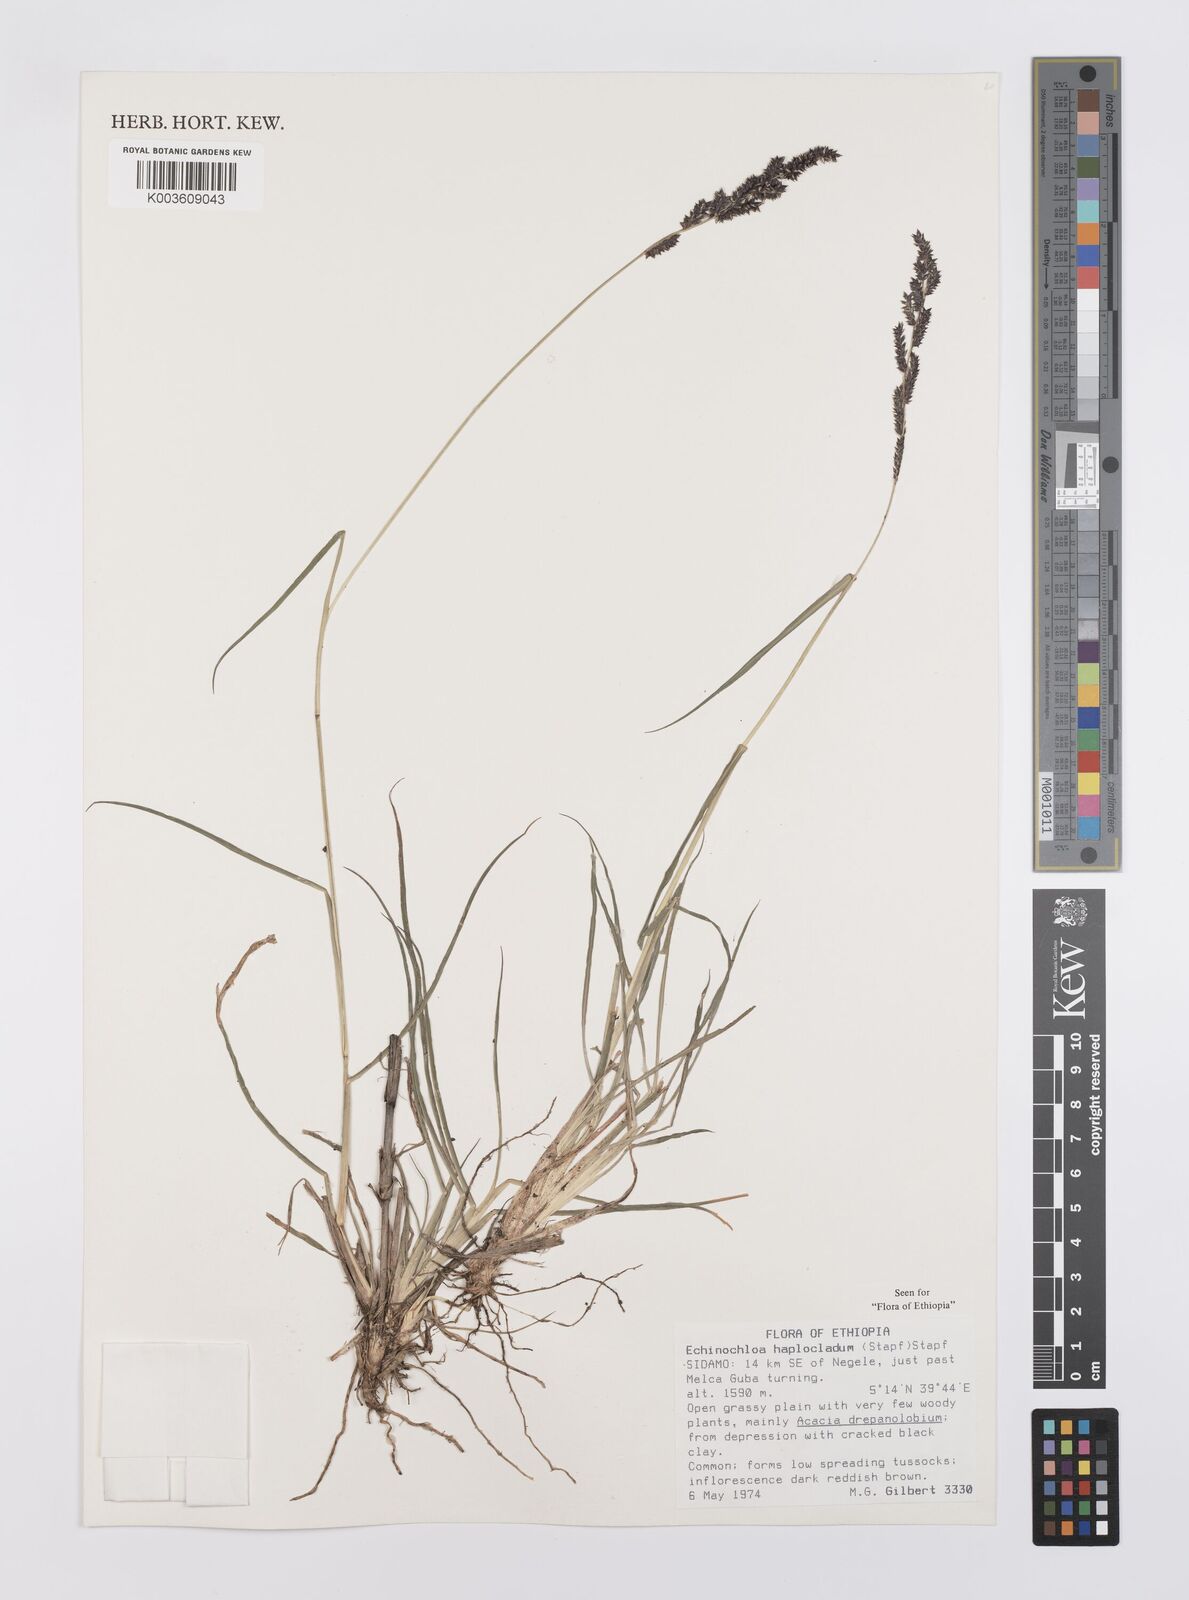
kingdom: Plantae
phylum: Tracheophyta
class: Liliopsida
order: Poales
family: Poaceae
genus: Echinochloa
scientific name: Echinochloa haploclada
